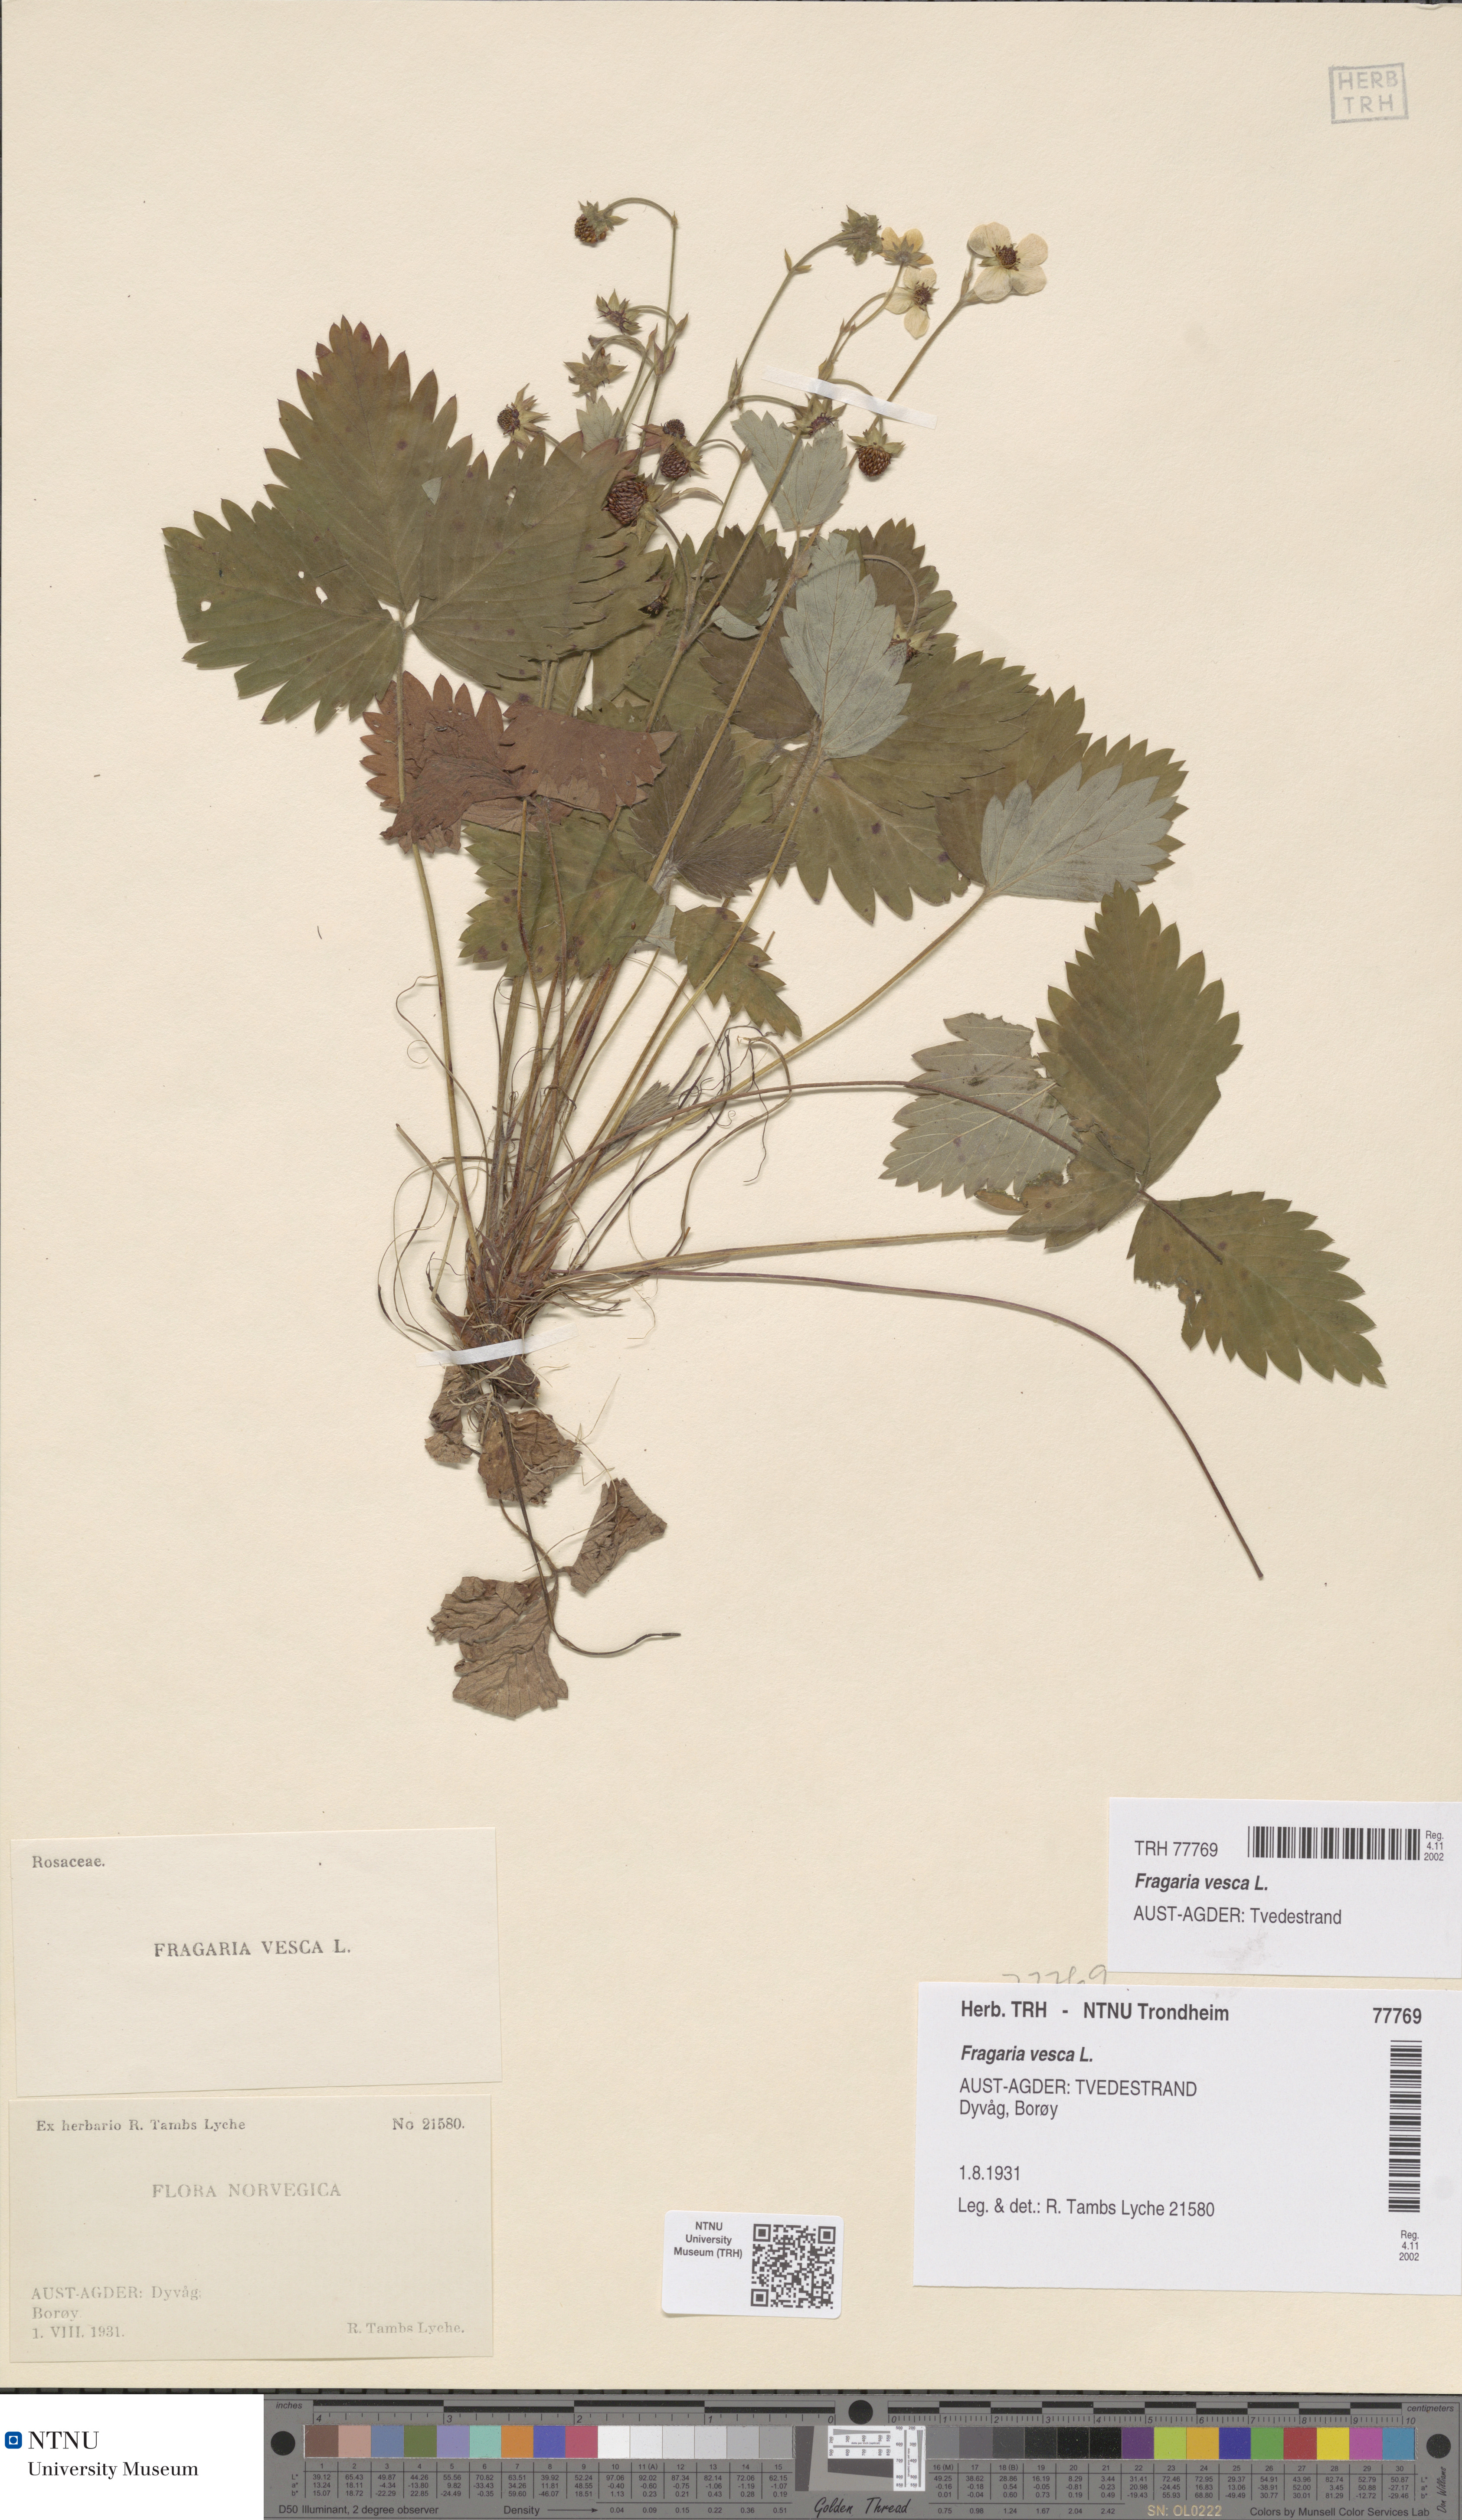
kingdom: Plantae
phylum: Tracheophyta
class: Magnoliopsida
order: Rosales
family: Rosaceae
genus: Fragaria
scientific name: Fragaria vesca
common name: Wild strawberry
